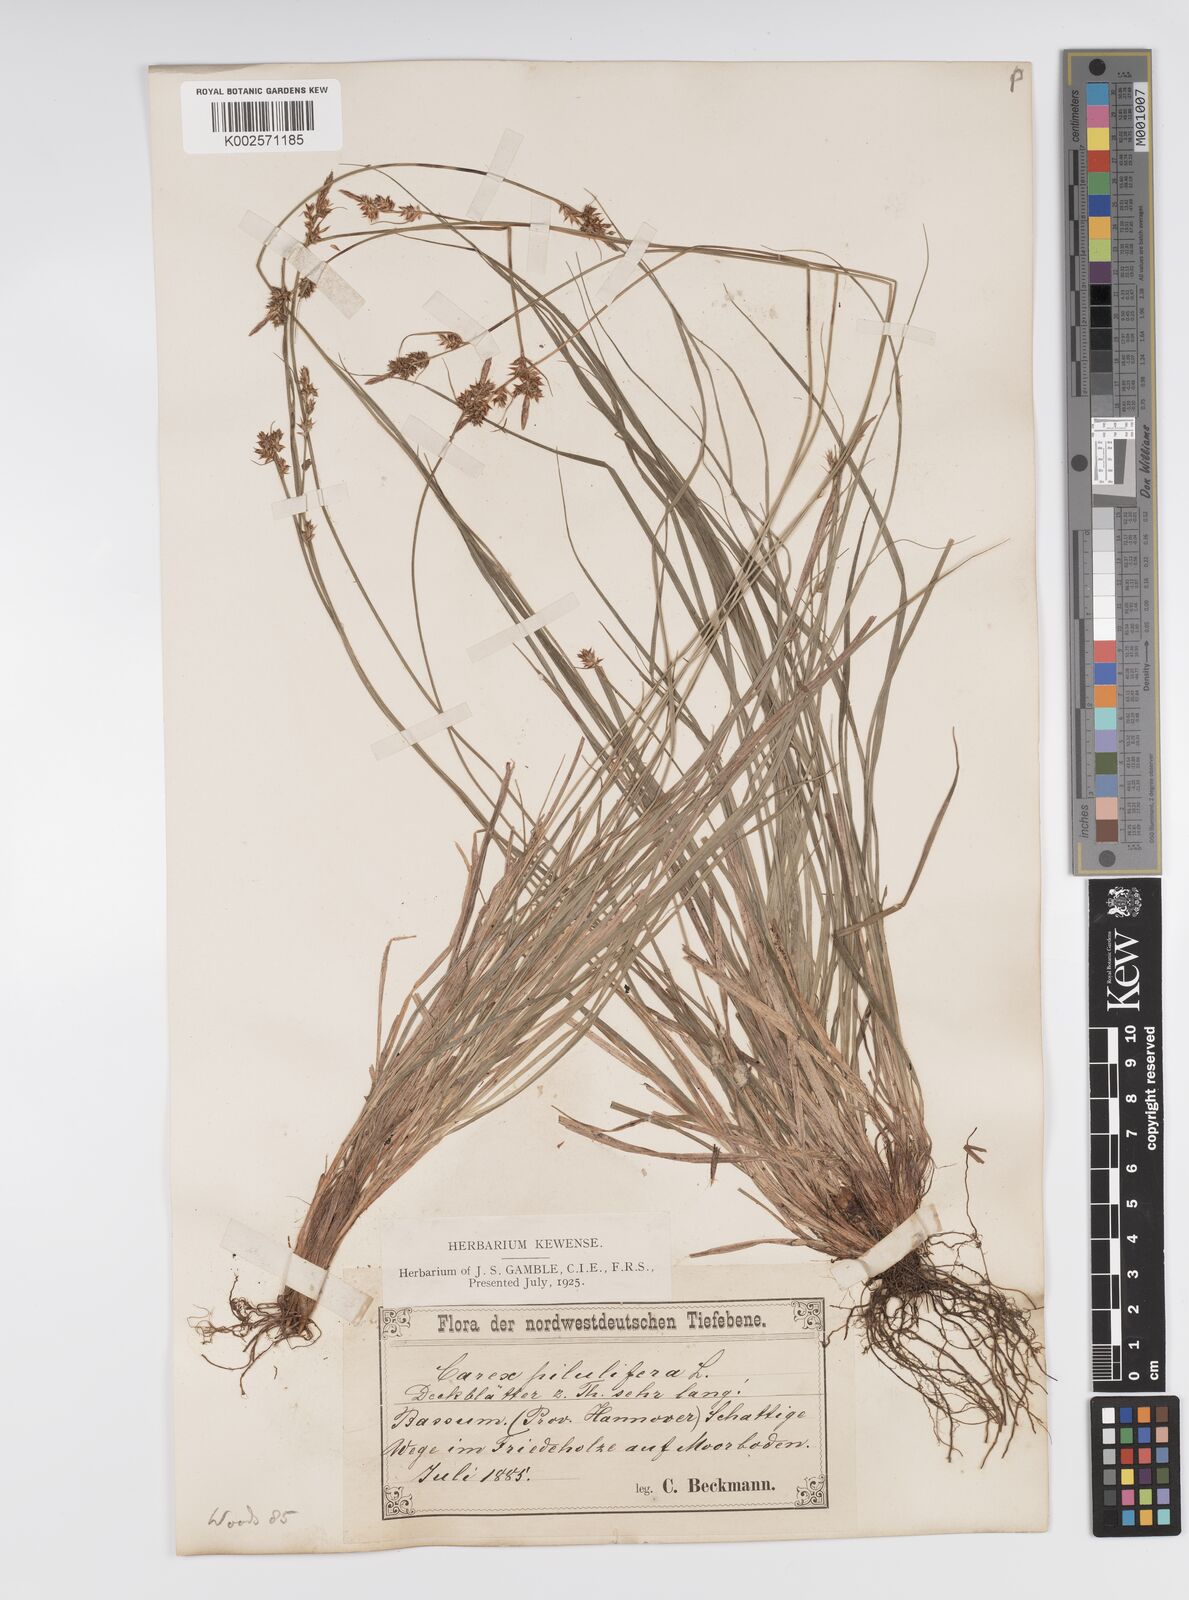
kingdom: Plantae
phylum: Tracheophyta
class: Liliopsida
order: Poales
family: Cyperaceae
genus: Carex
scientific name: Carex pilulifera
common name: Pill sedge
